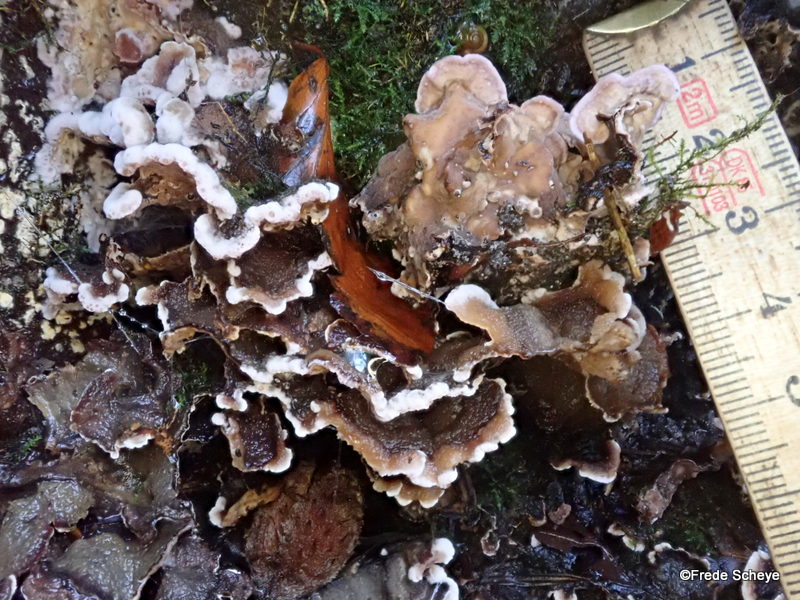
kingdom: Fungi
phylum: Basidiomycota
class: Agaricomycetes
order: Agaricales
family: Cyphellaceae
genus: Chondrostereum
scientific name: Chondrostereum purpureum
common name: purpurlædersvamp
